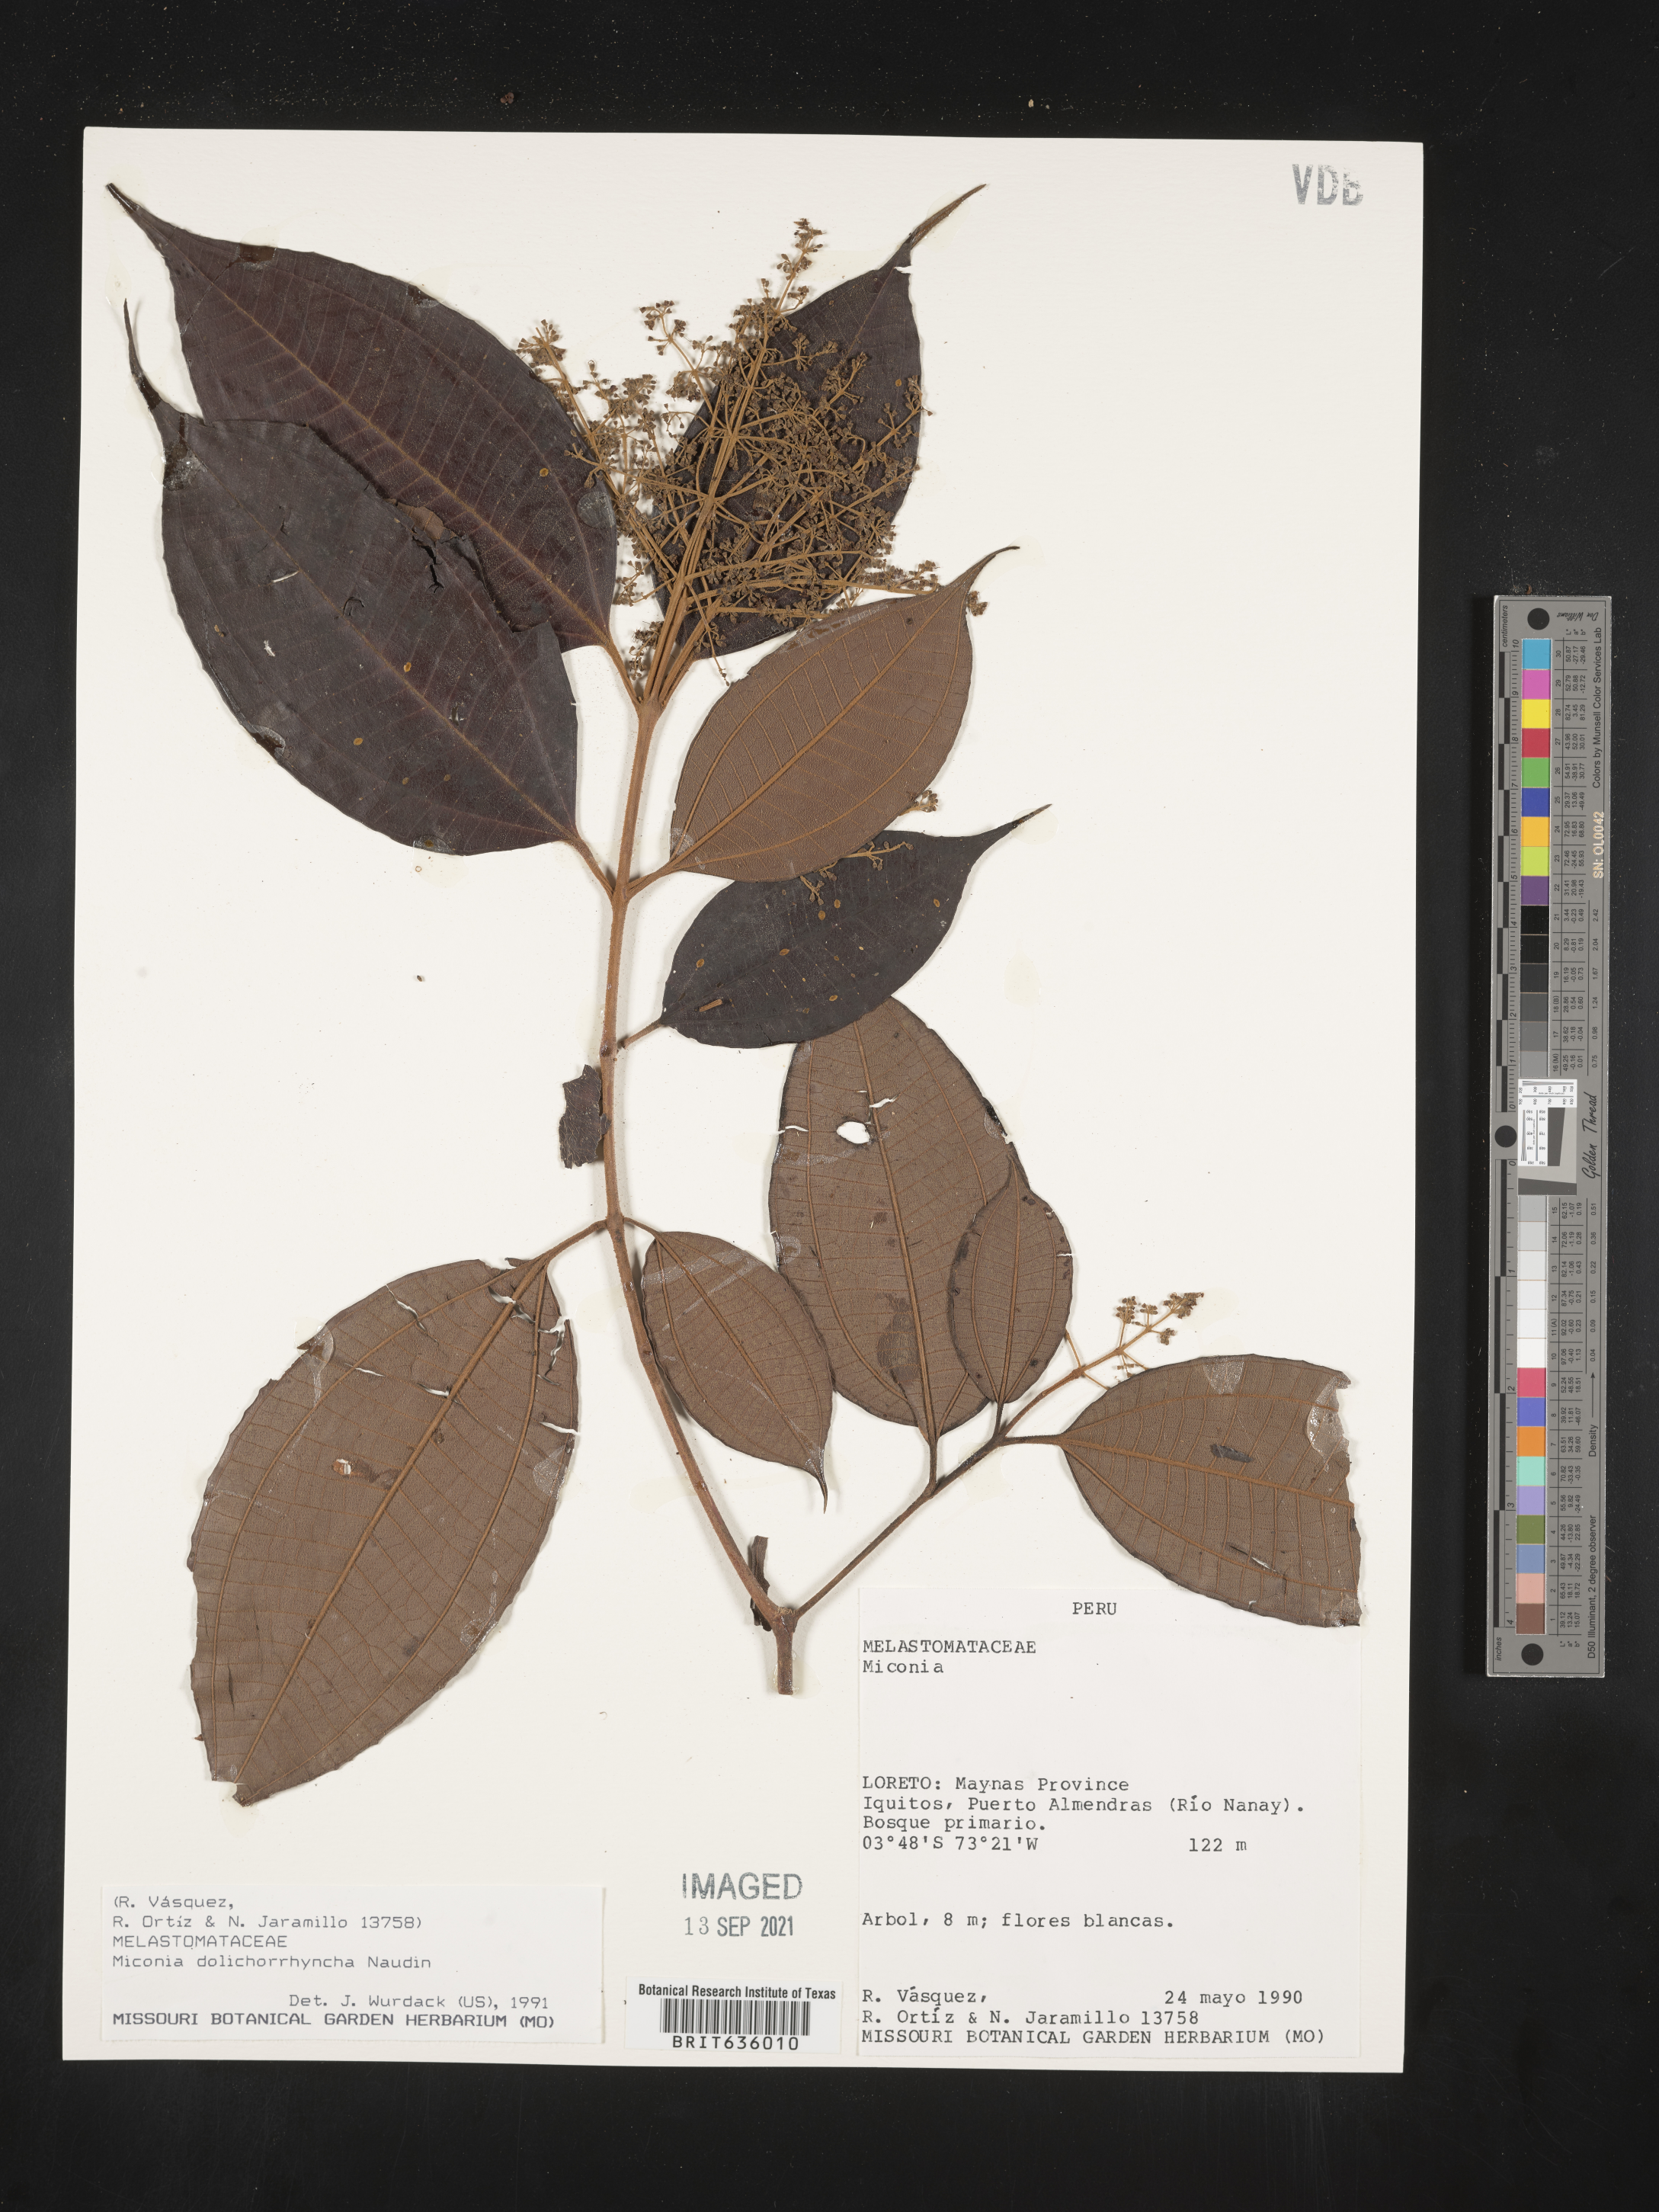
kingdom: Plantae
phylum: Tracheophyta
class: Magnoliopsida
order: Myrtales
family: Melastomataceae
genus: Miconia
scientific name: Miconia
